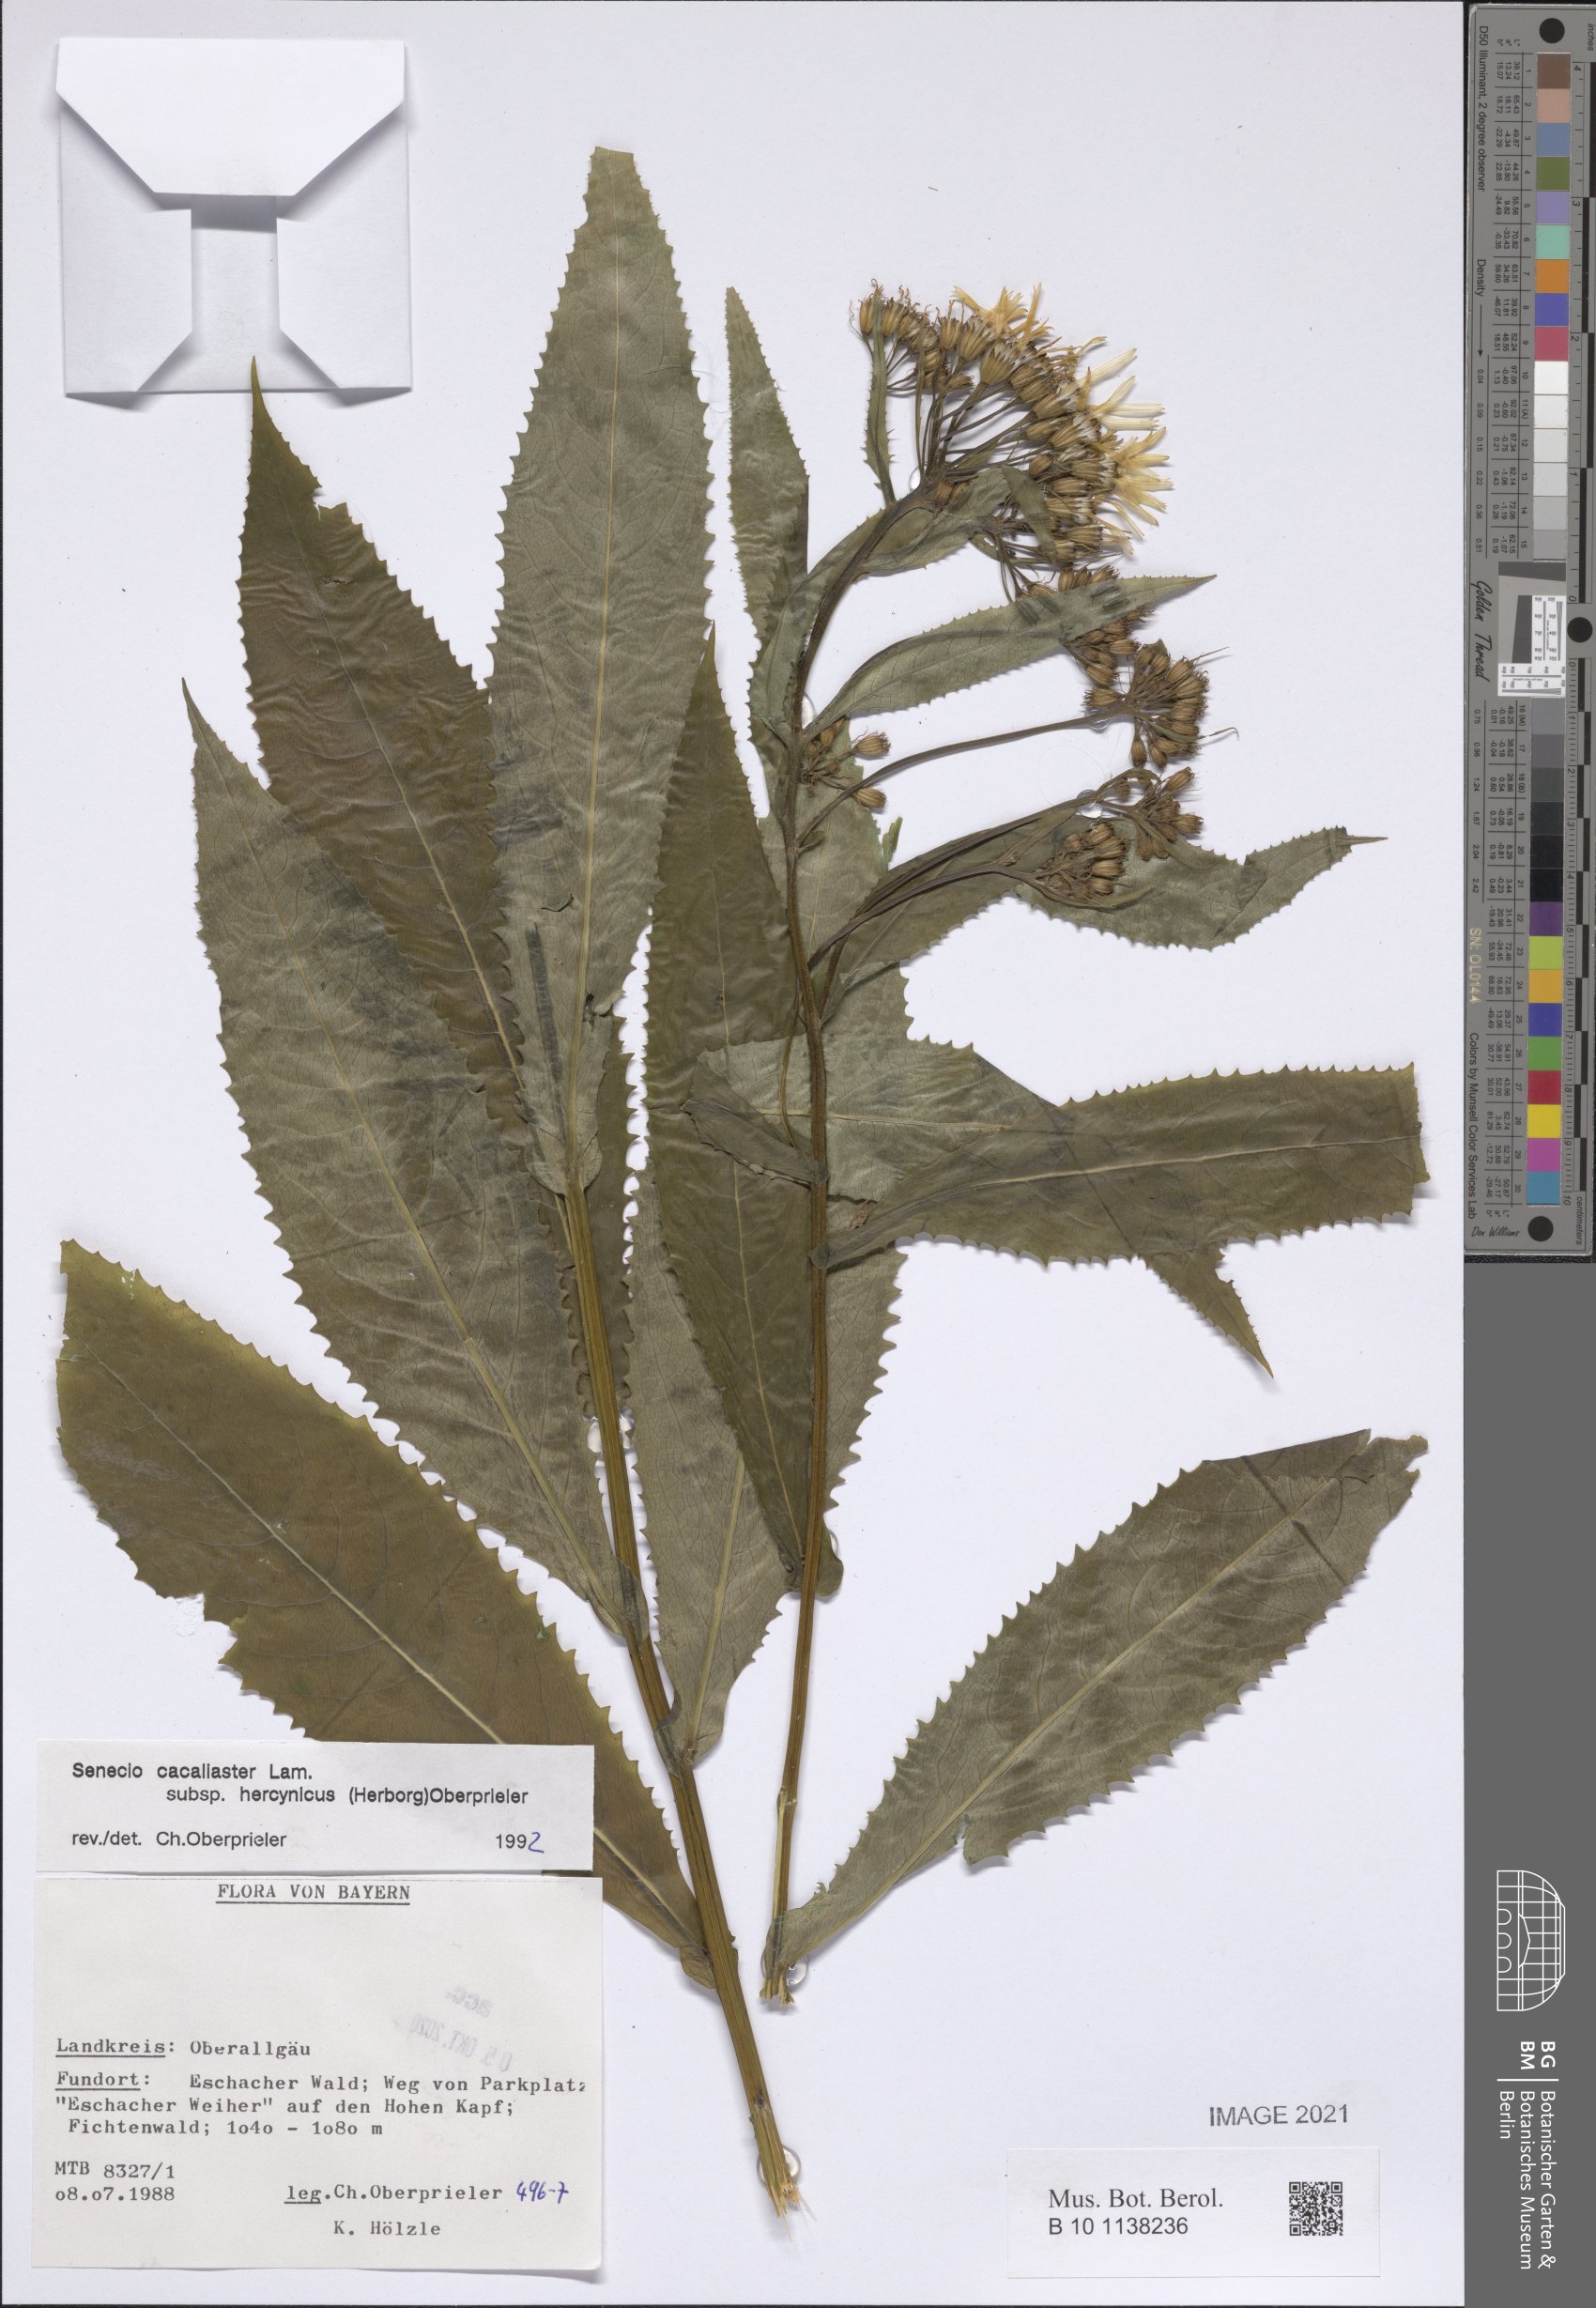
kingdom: Plantae
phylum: Tracheophyta
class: Magnoliopsida
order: Asterales
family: Asteraceae
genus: Senecio
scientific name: Senecio hercynicus
